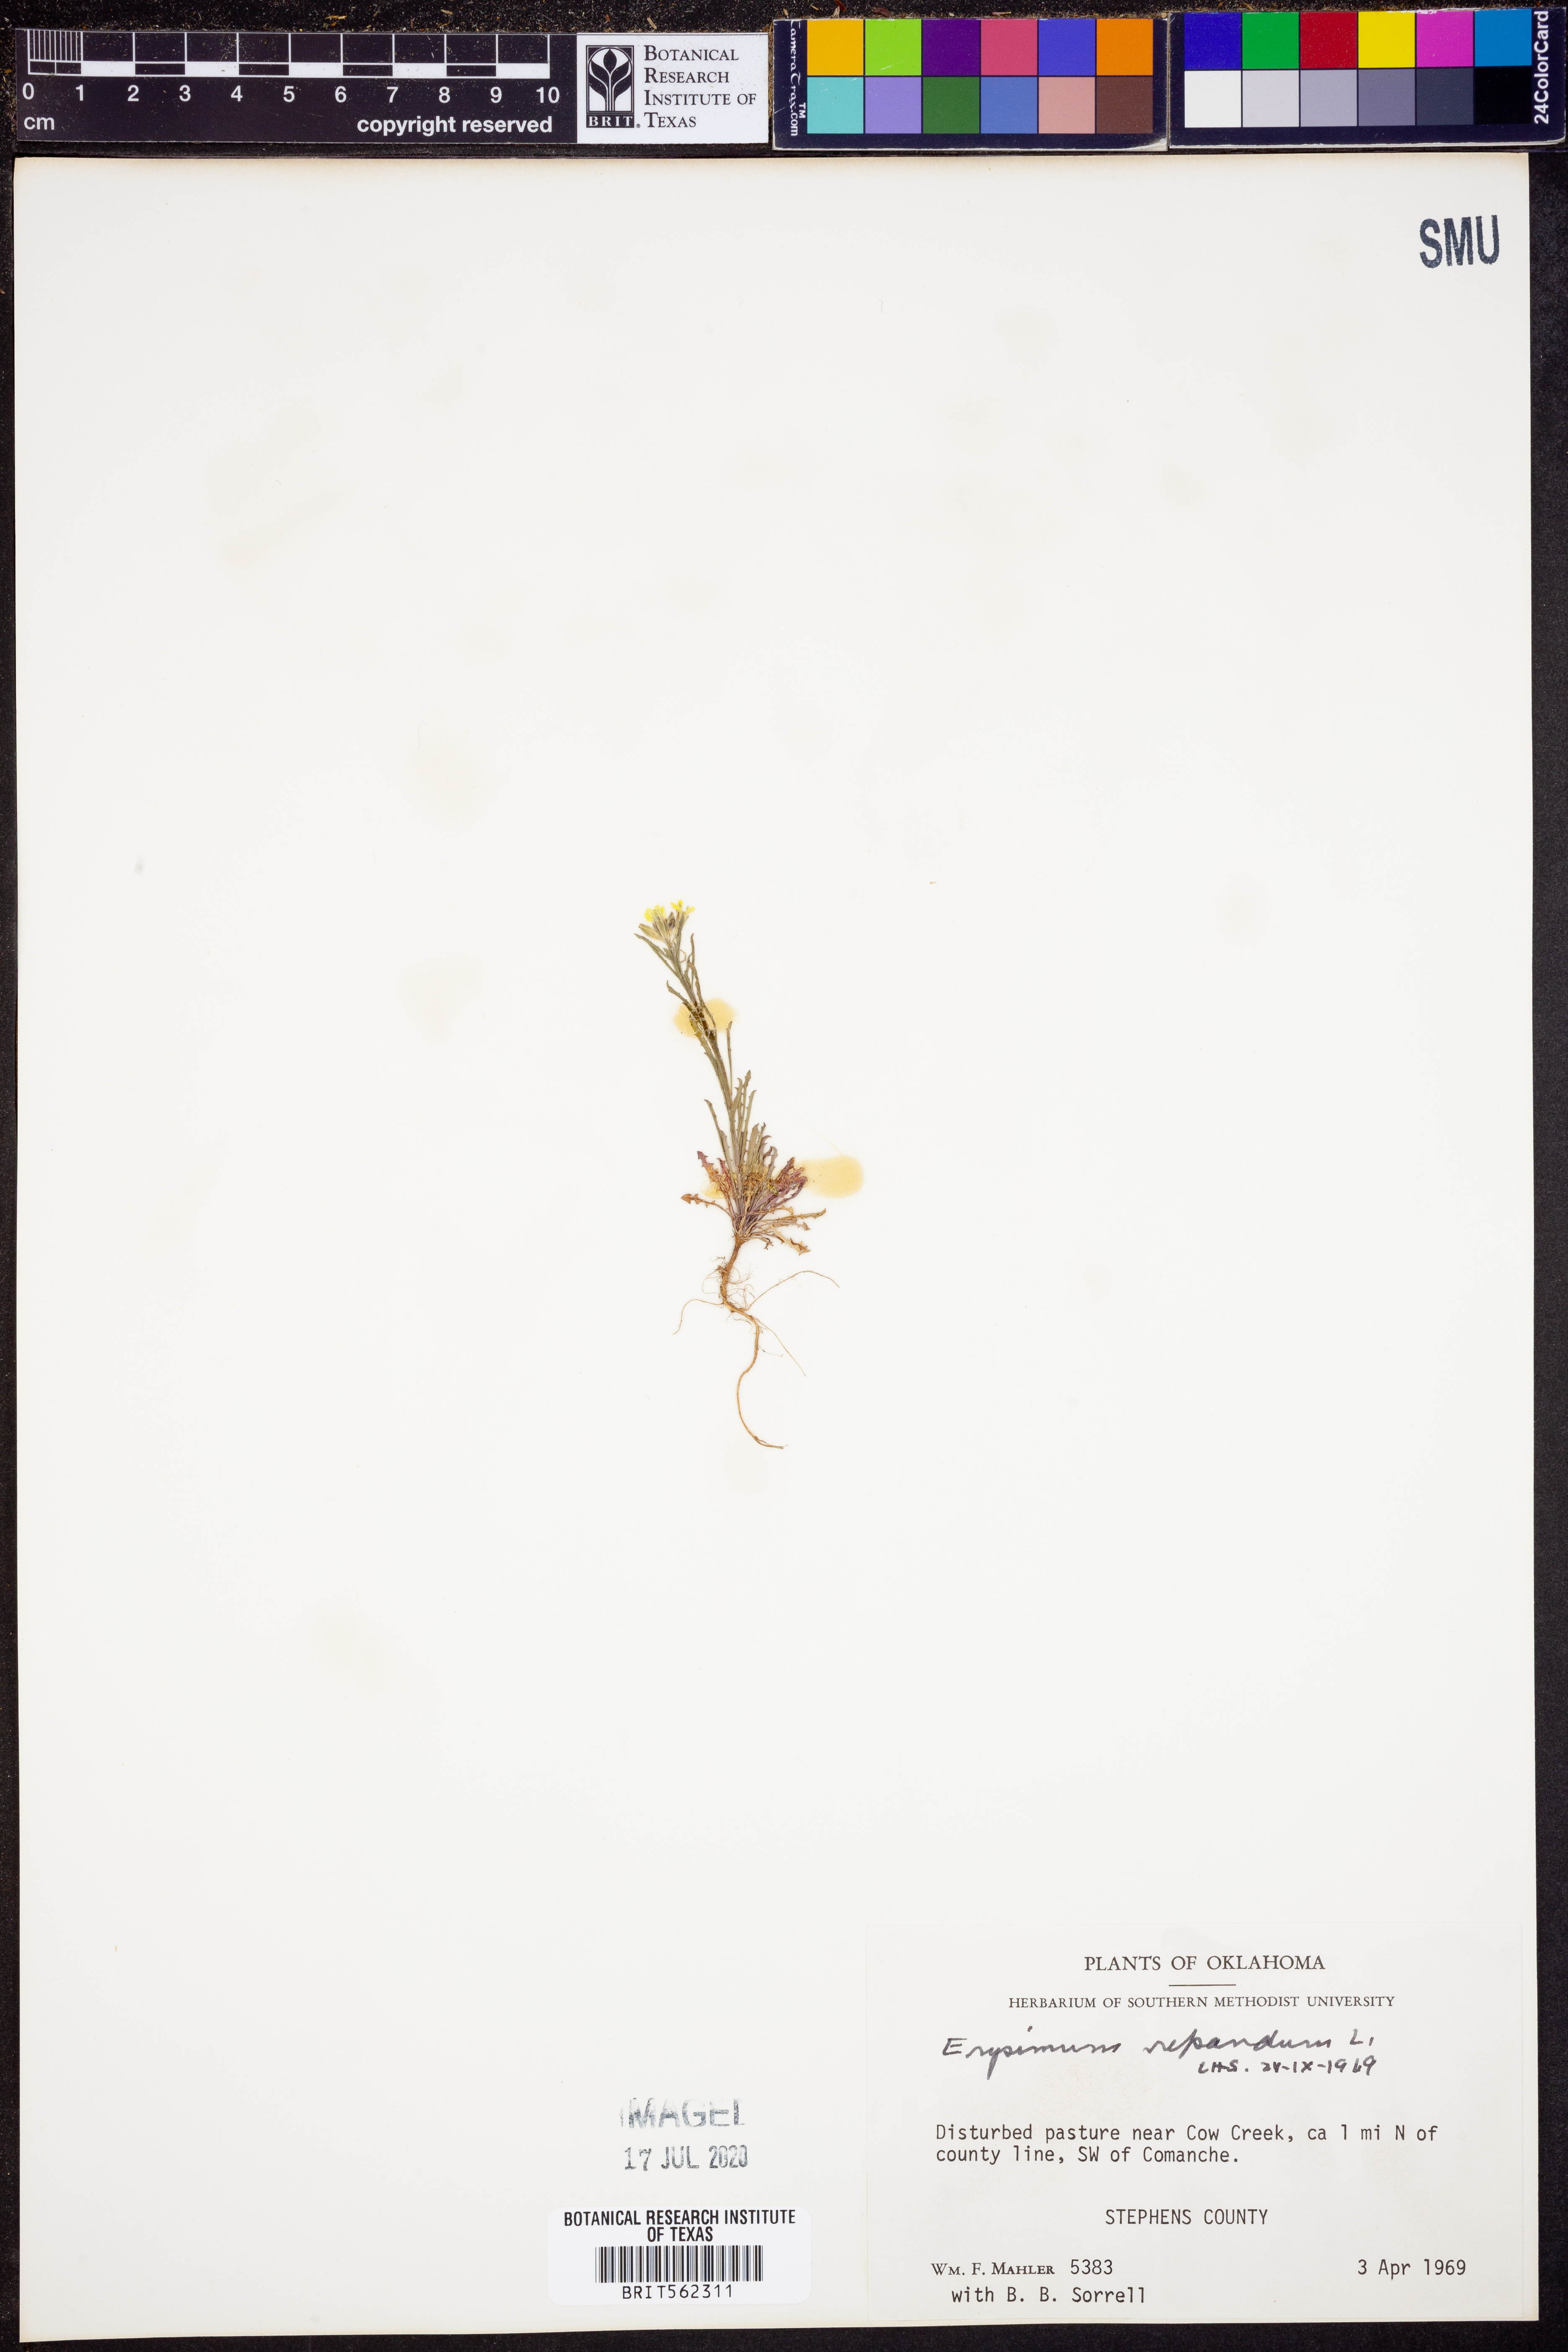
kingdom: Plantae
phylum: Tracheophyta
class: Magnoliopsida
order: Brassicales
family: Brassicaceae
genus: Erysimum
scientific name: Erysimum repandum
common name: Spreading wallflower
